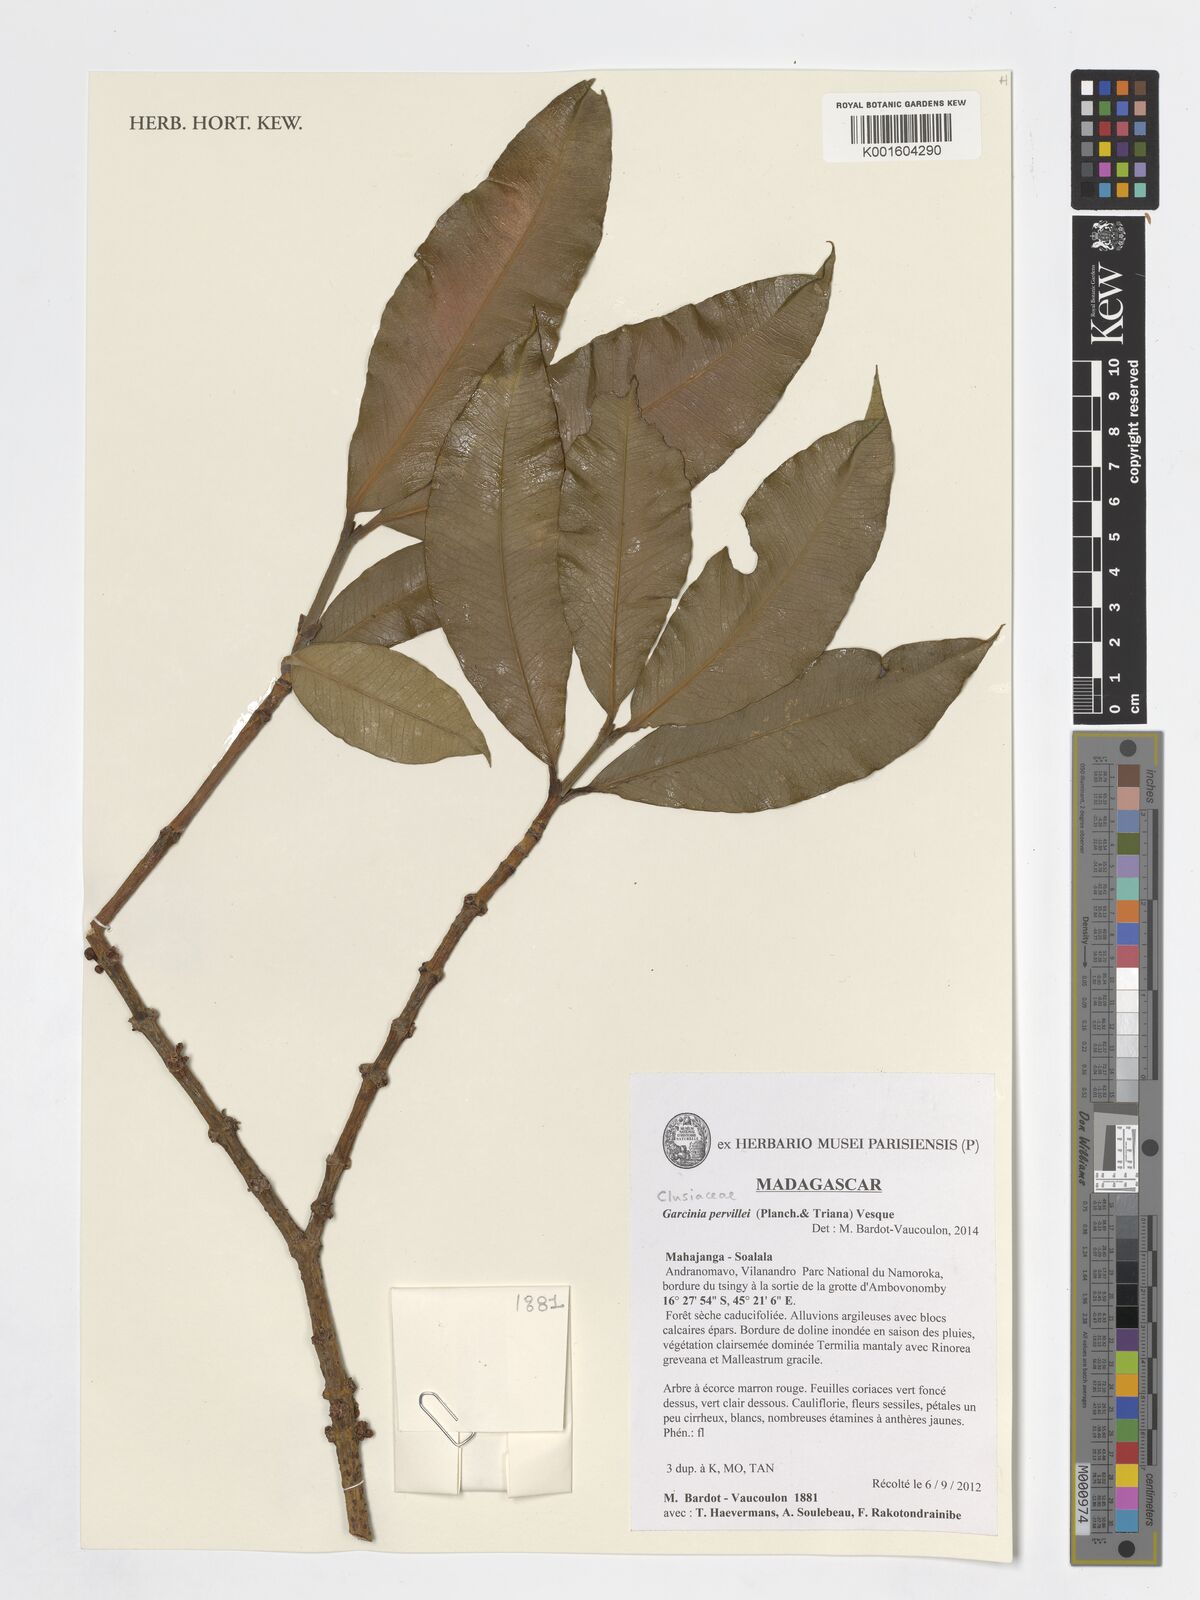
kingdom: Plantae
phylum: Tracheophyta
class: Magnoliopsida
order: Malpighiales
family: Clusiaceae
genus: Garcinia
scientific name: Garcinia pervillei
